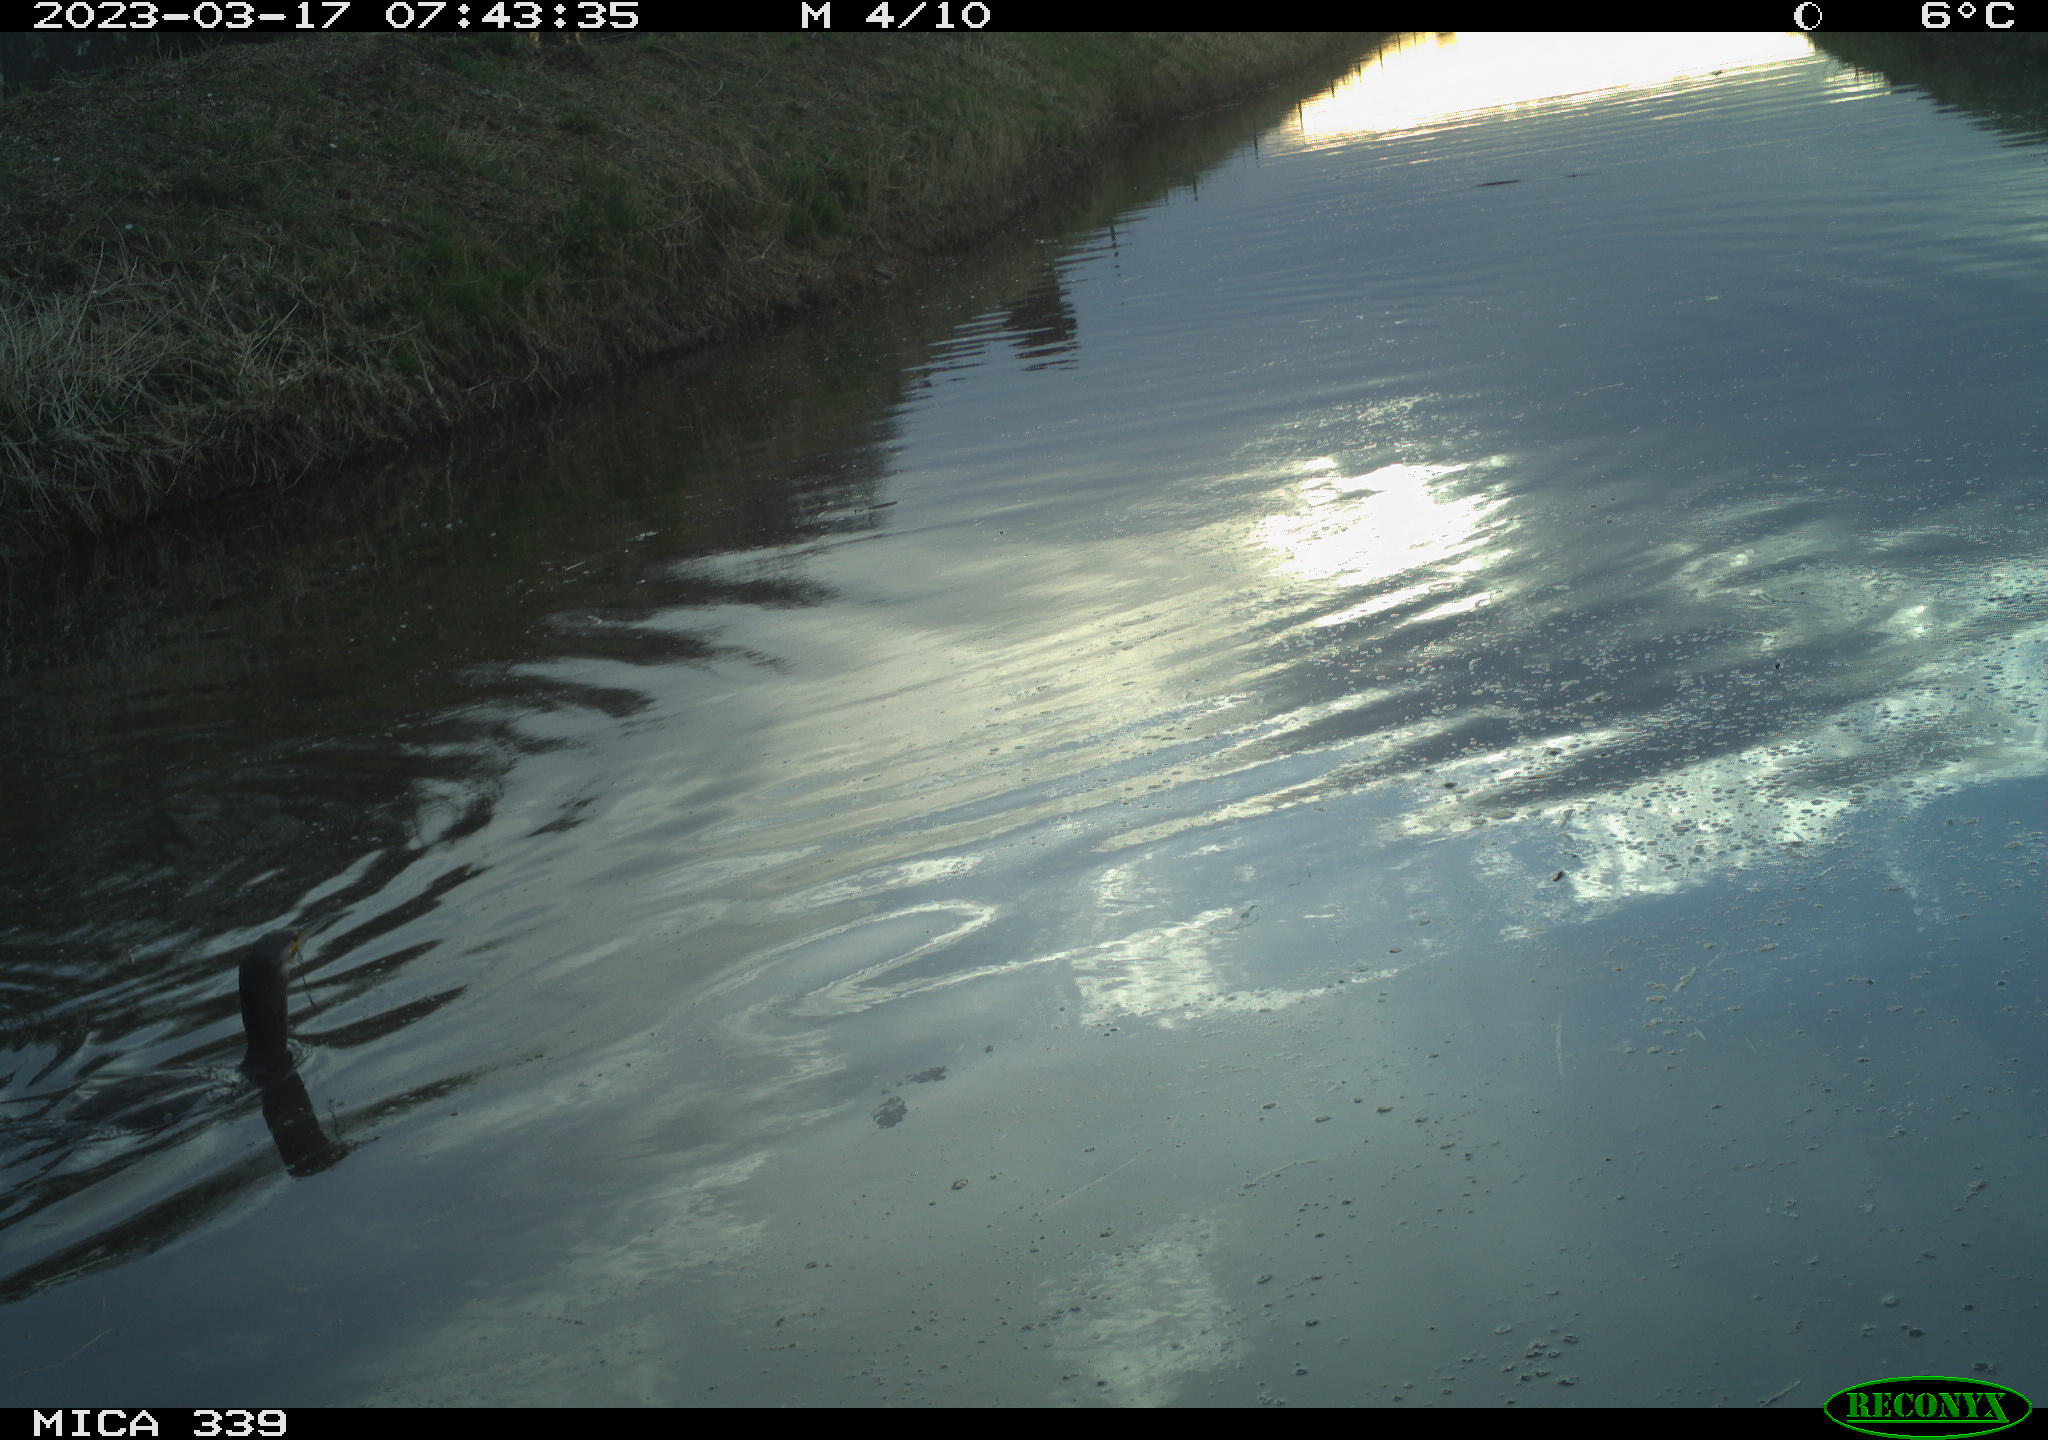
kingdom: Animalia
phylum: Chordata
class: Aves
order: Anseriformes
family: Anatidae
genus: Anas
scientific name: Anas
